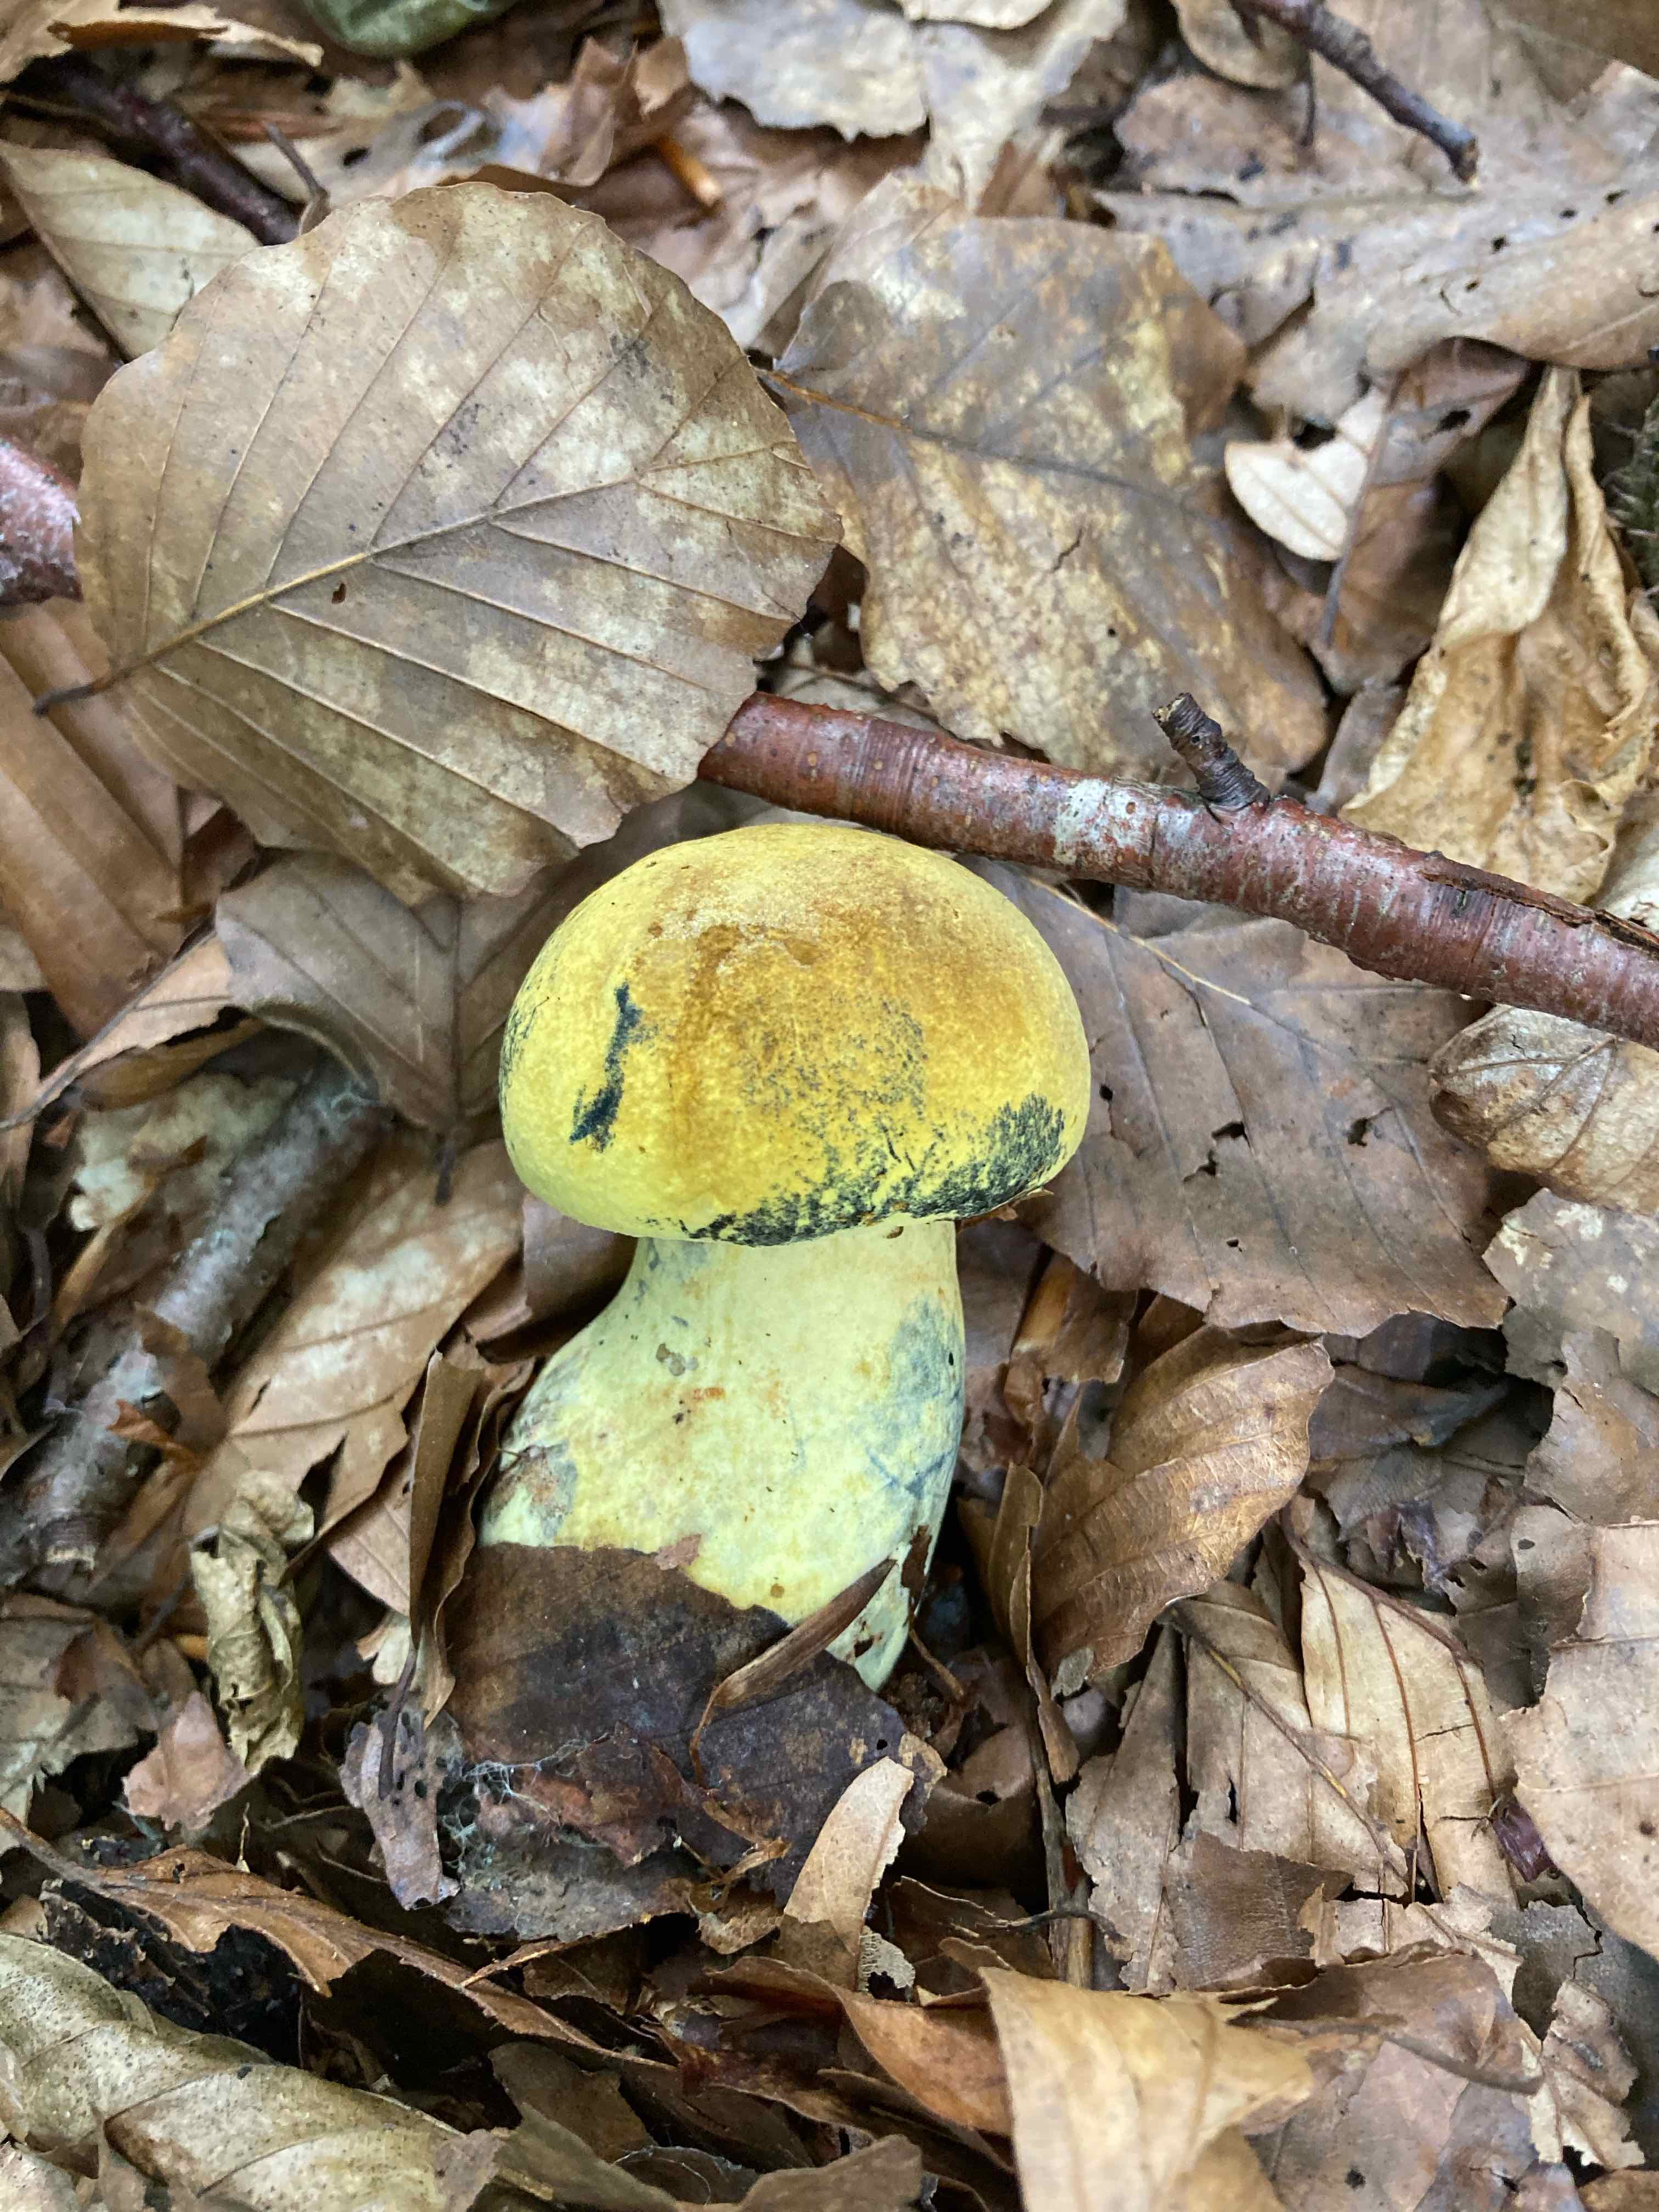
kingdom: Fungi
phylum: Basidiomycota
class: Agaricomycetes
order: Boletales
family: Boletaceae
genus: Neoboletus
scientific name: Neoboletus praestigiator
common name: gul indigorørhat
